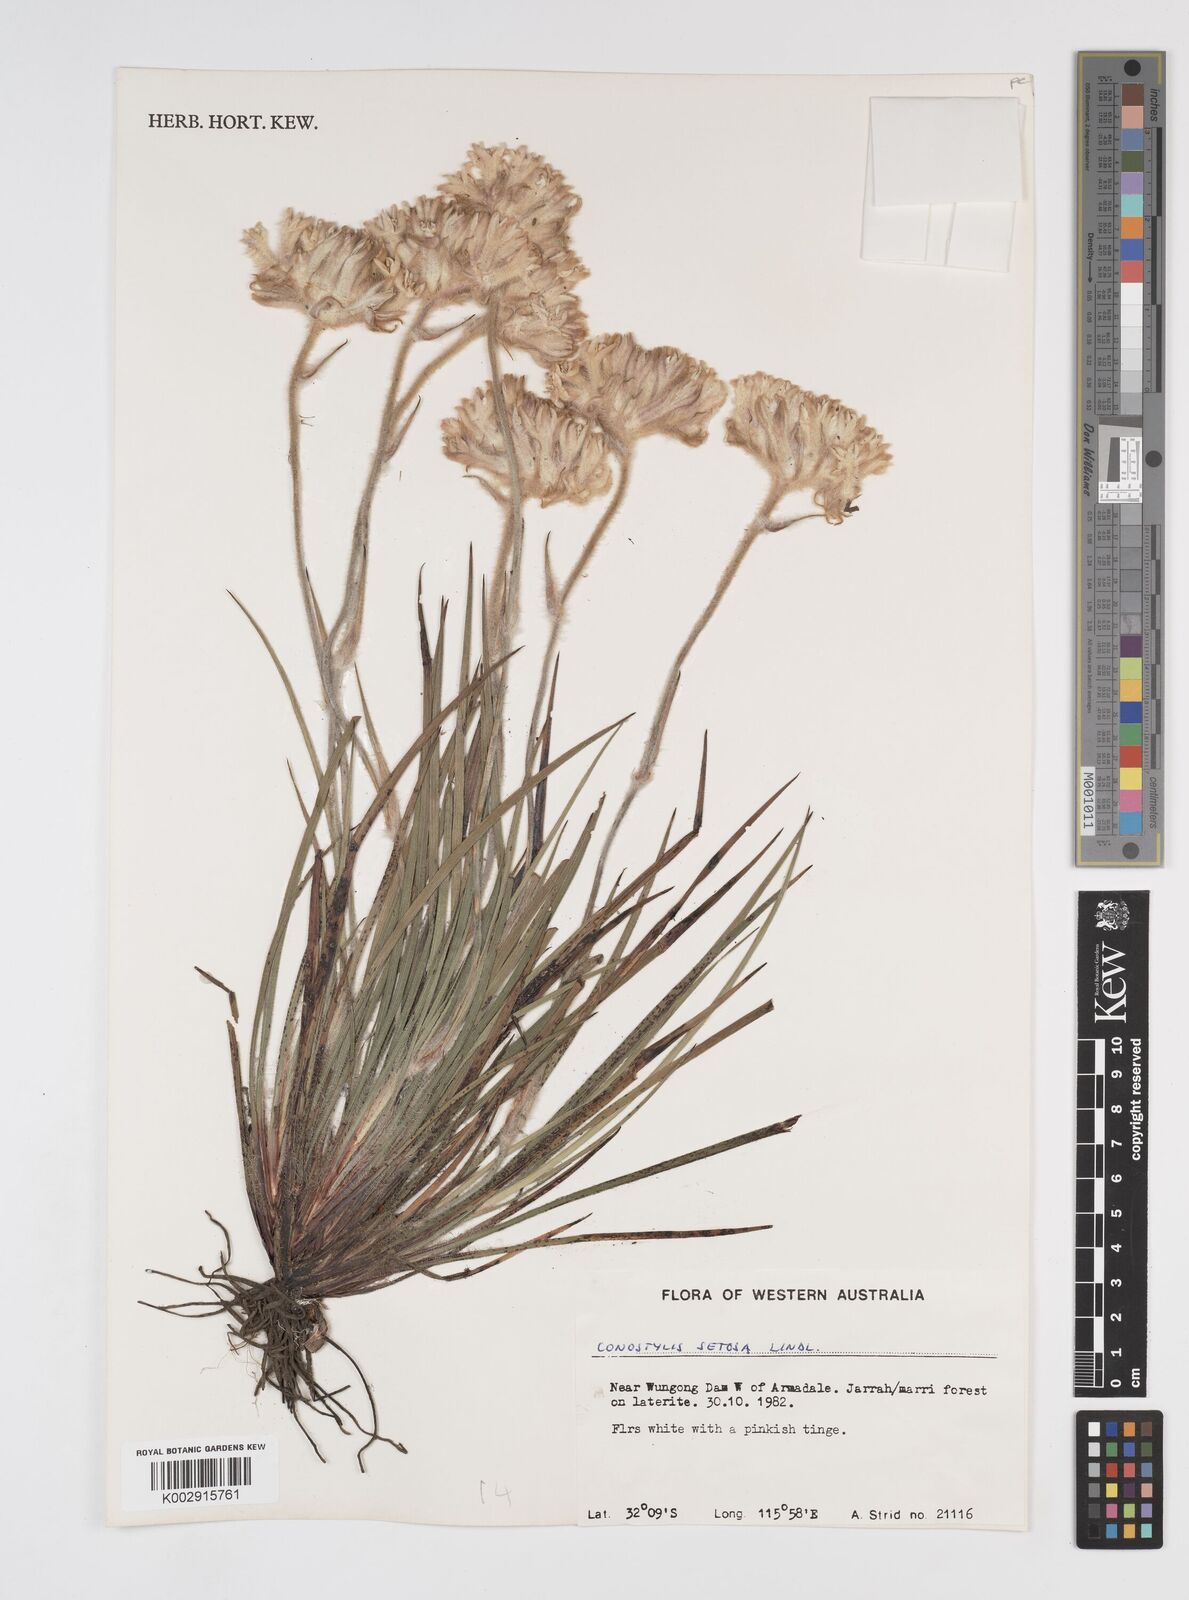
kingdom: Plantae
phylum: Tracheophyta
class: Liliopsida
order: Commelinales
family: Haemodoraceae
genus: Conostylis
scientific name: Conostylis setosa
